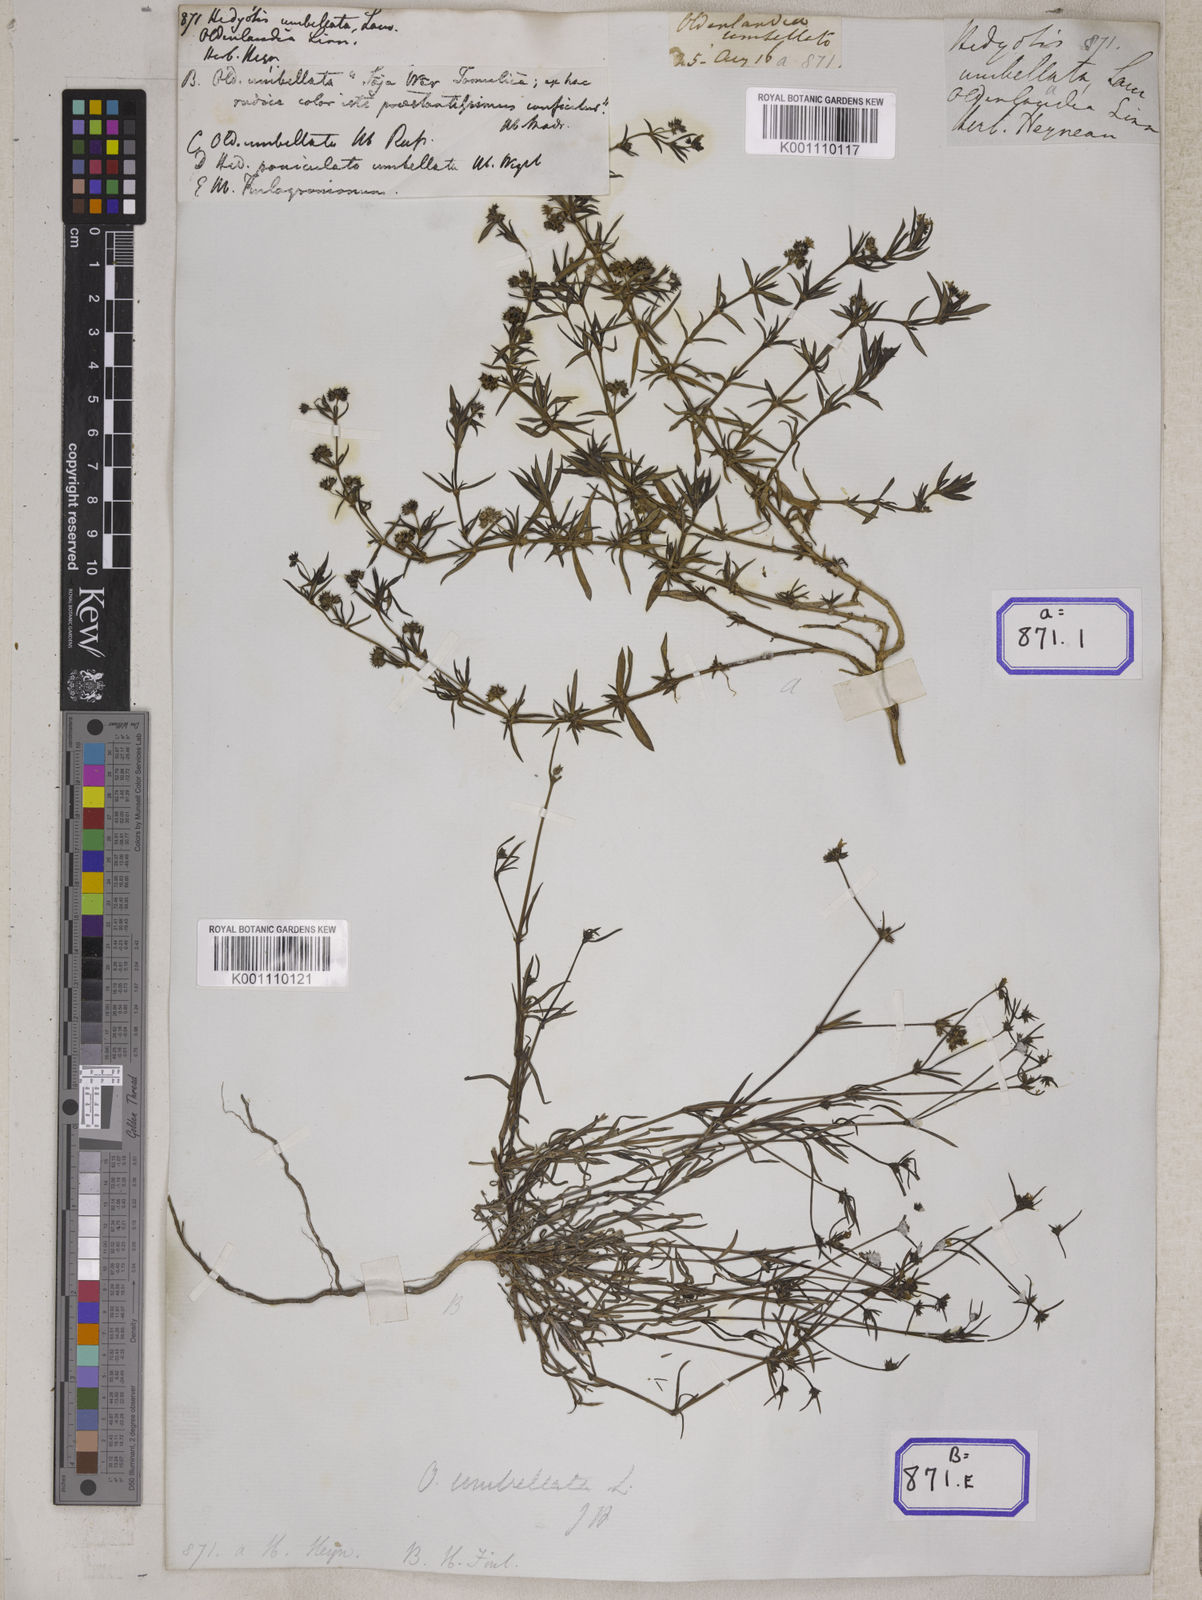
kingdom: Plantae
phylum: Tracheophyta
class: Magnoliopsida
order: Gentianales
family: Rubiaceae
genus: Oldenlandia
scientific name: Oldenlandia umbellata
